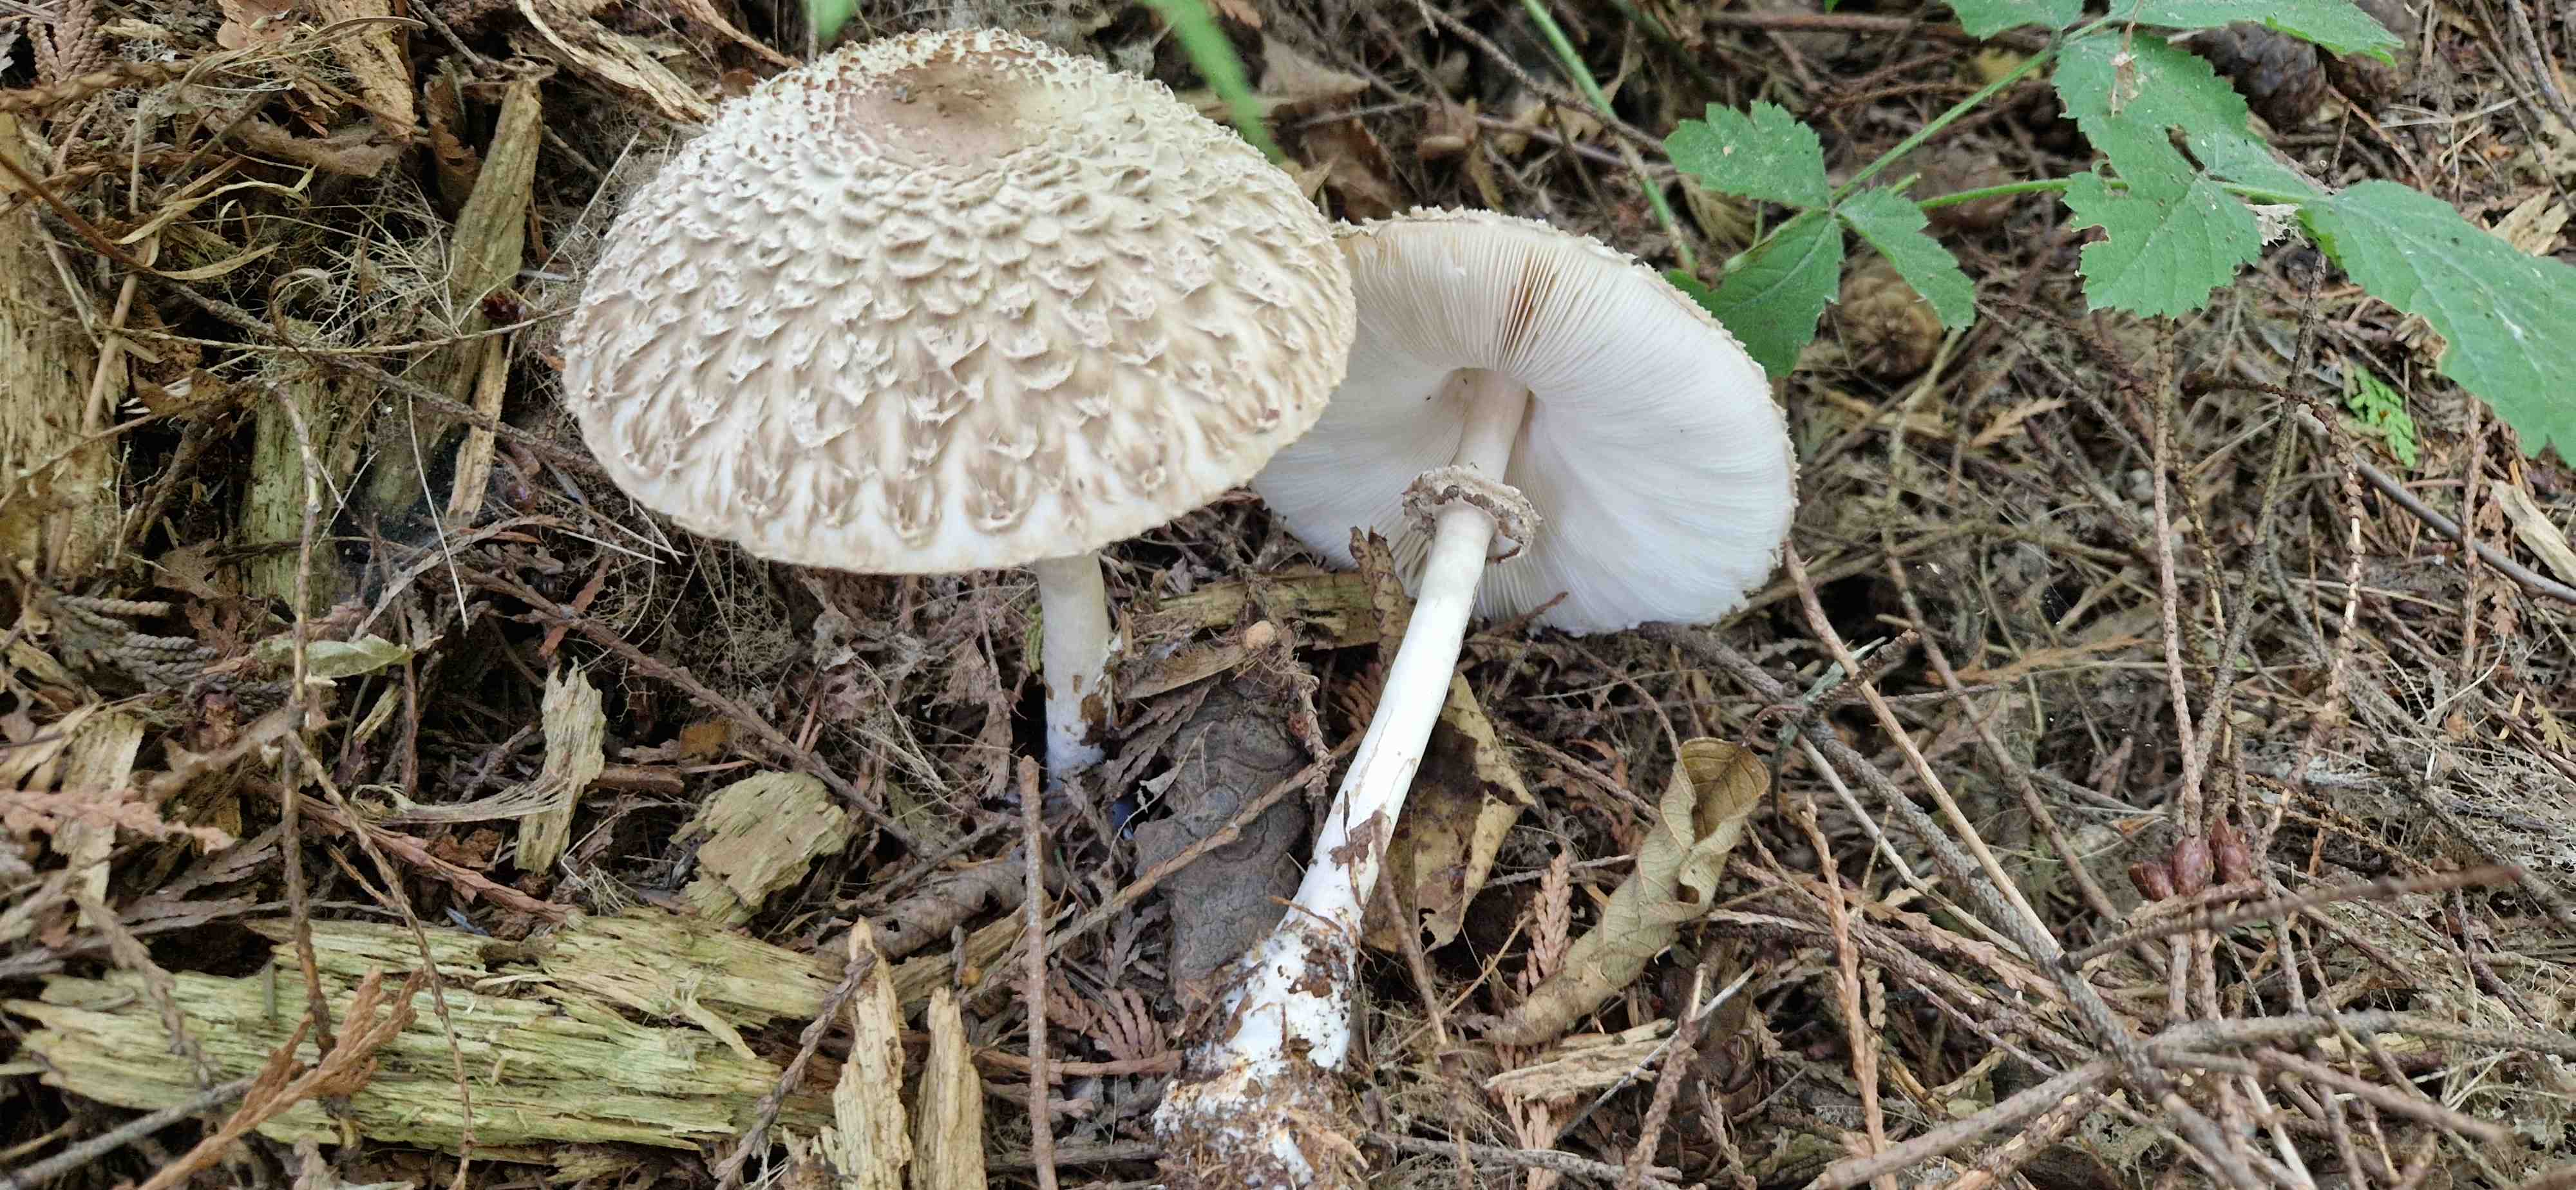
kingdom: Fungi
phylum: Basidiomycota
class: Agaricomycetes
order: Agaricales
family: Agaricaceae
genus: Chlorophyllum
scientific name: Chlorophyllum olivieri
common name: almindelig rabarberhat
